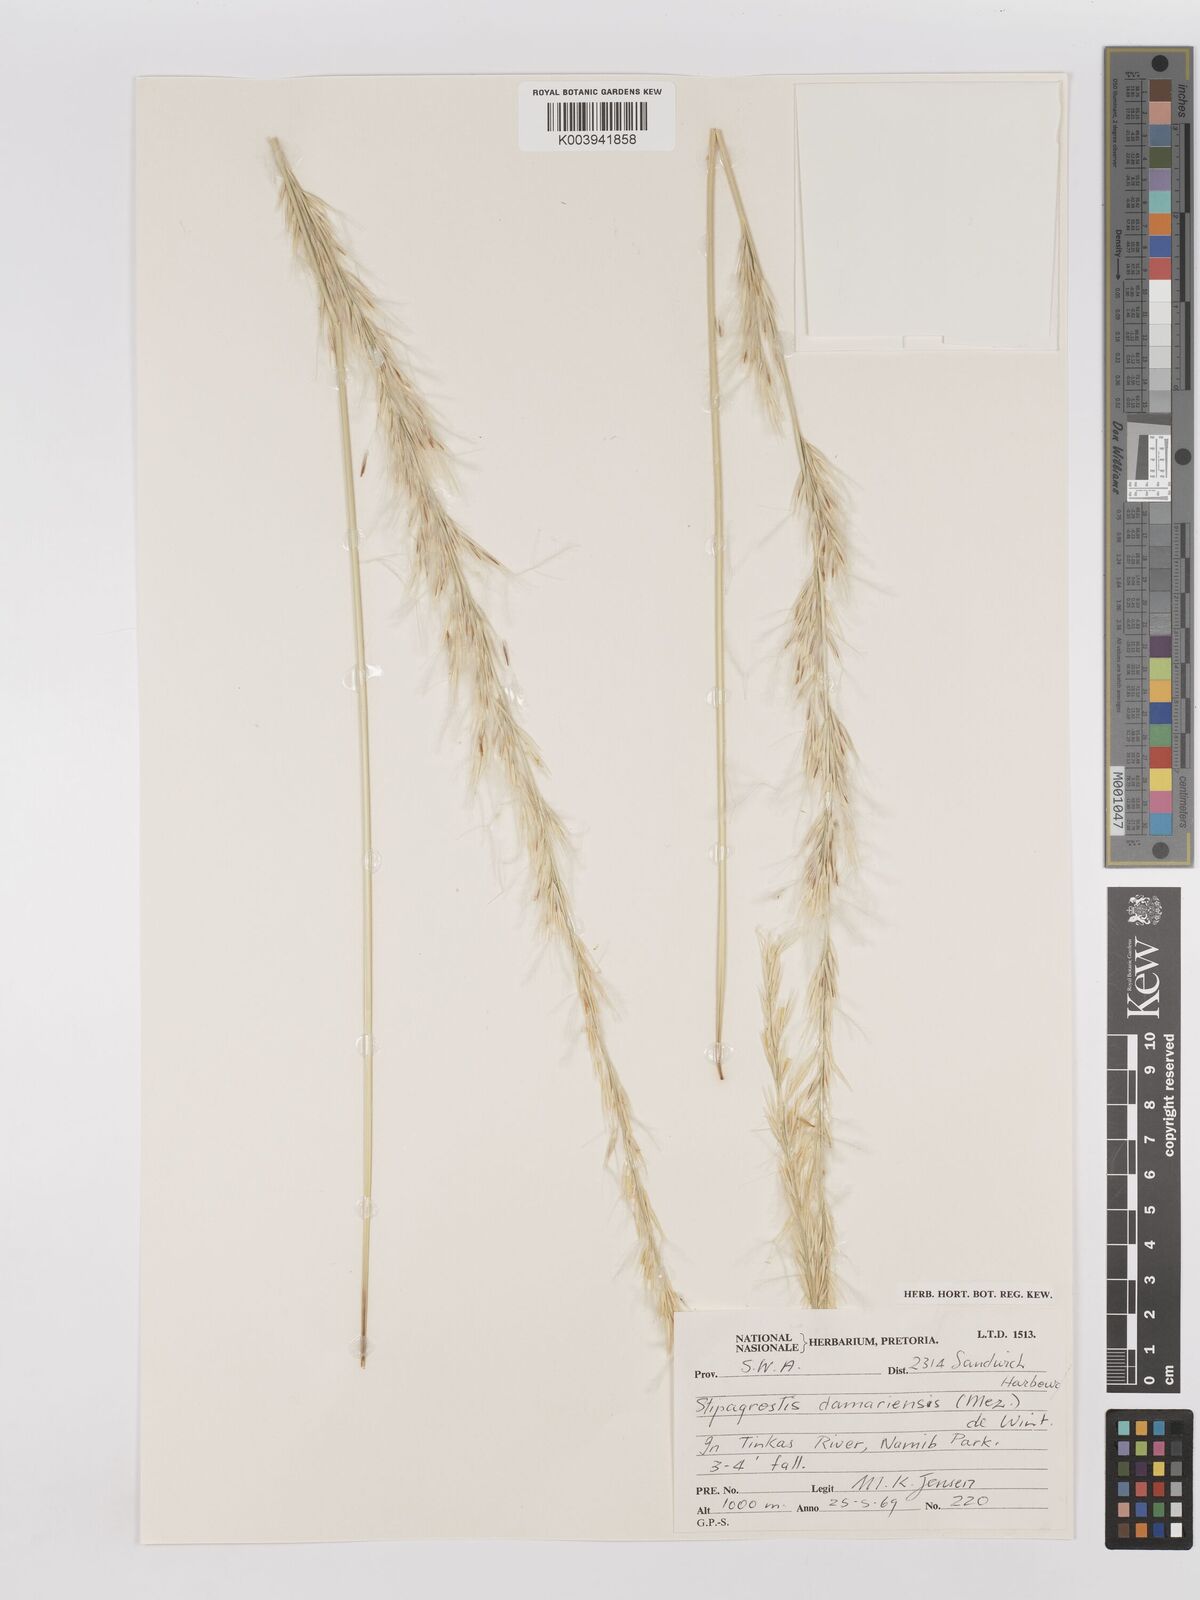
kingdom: Plantae
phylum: Tracheophyta
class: Liliopsida
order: Poales
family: Poaceae
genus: Stipagrostis
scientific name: Stipagrostis damarensis
